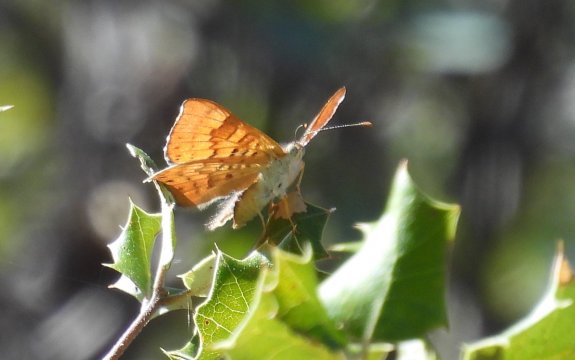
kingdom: Animalia
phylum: Arthropoda
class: Insecta
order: Lepidoptera
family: Lycaenidae
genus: Emesis
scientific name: Emesis zela
